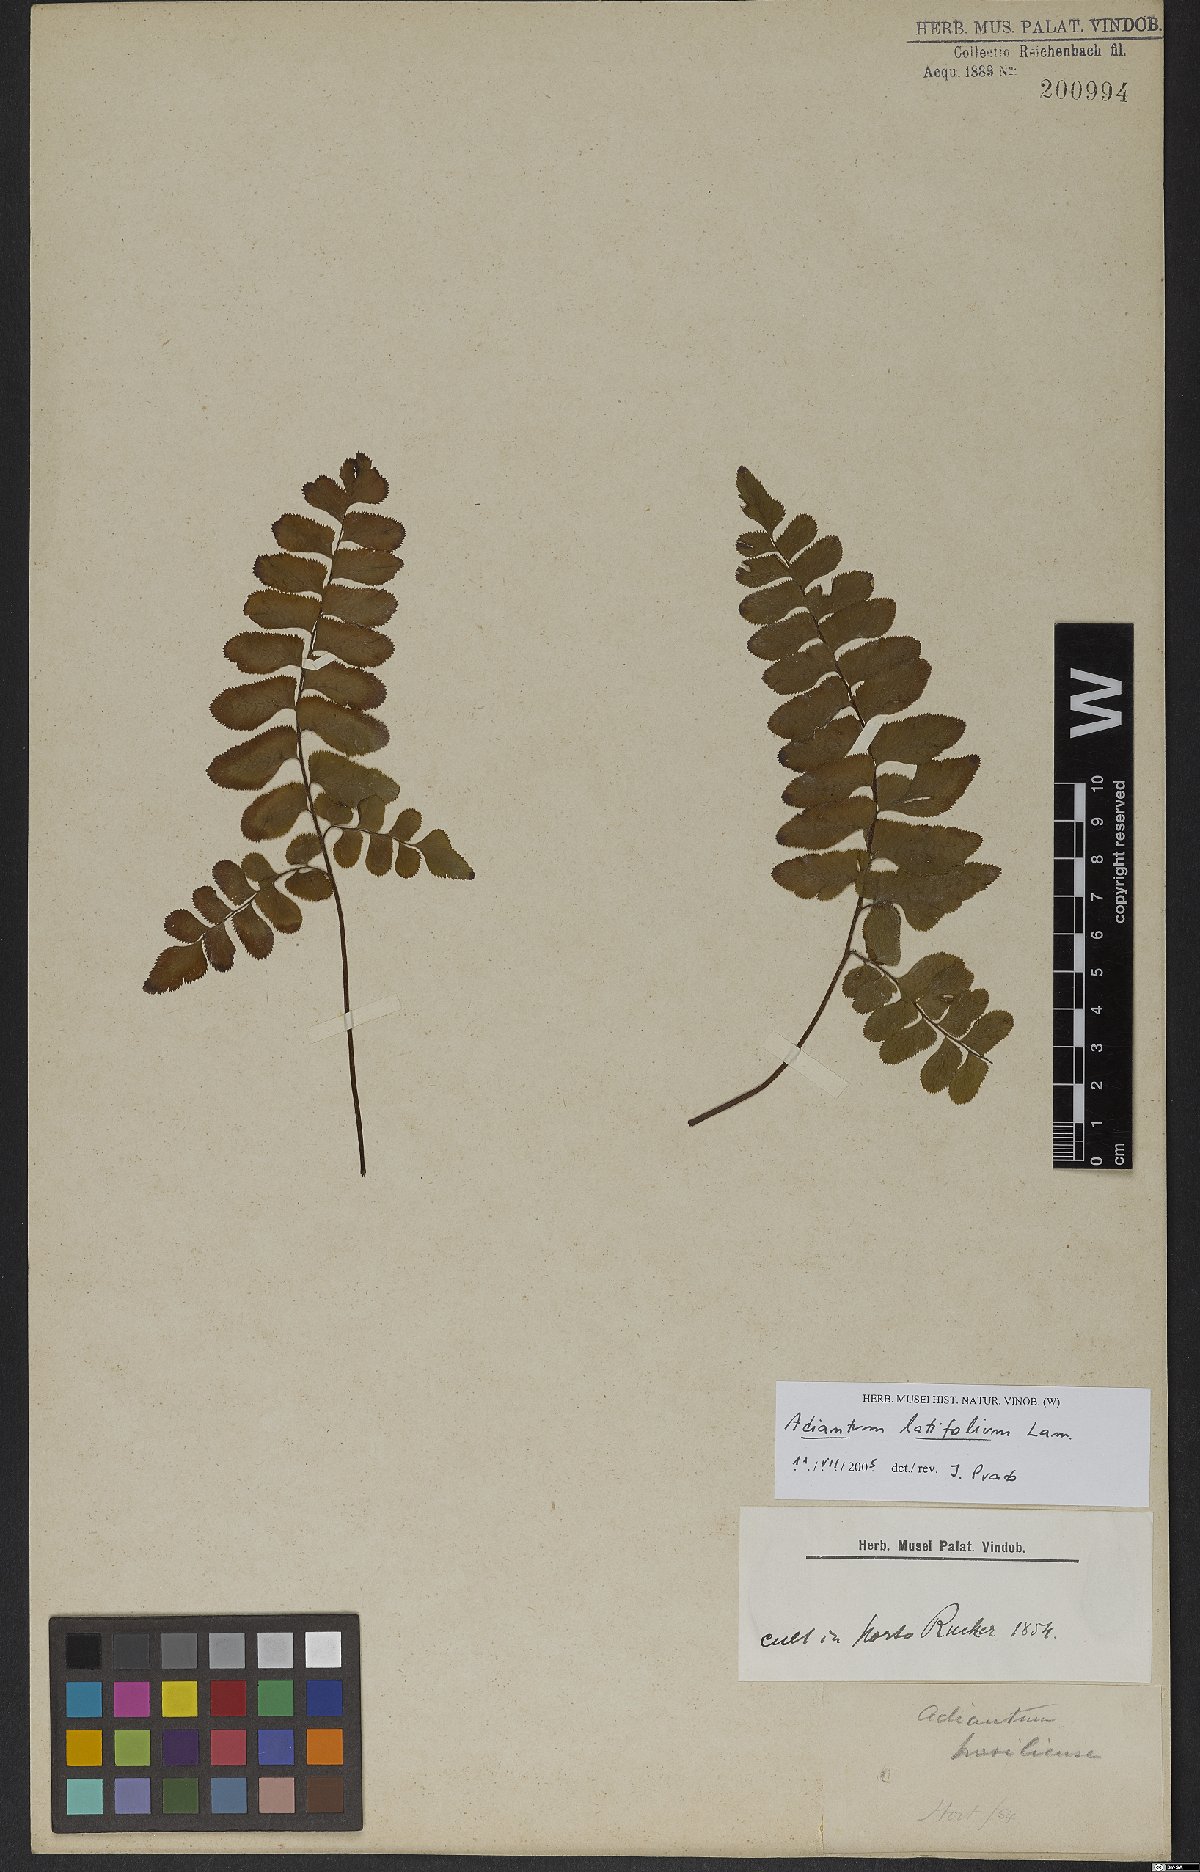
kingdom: Plantae
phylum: Tracheophyta
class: Polypodiopsida
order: Polypodiales
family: Pteridaceae
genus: Adiantum
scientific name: Adiantum latifolium
